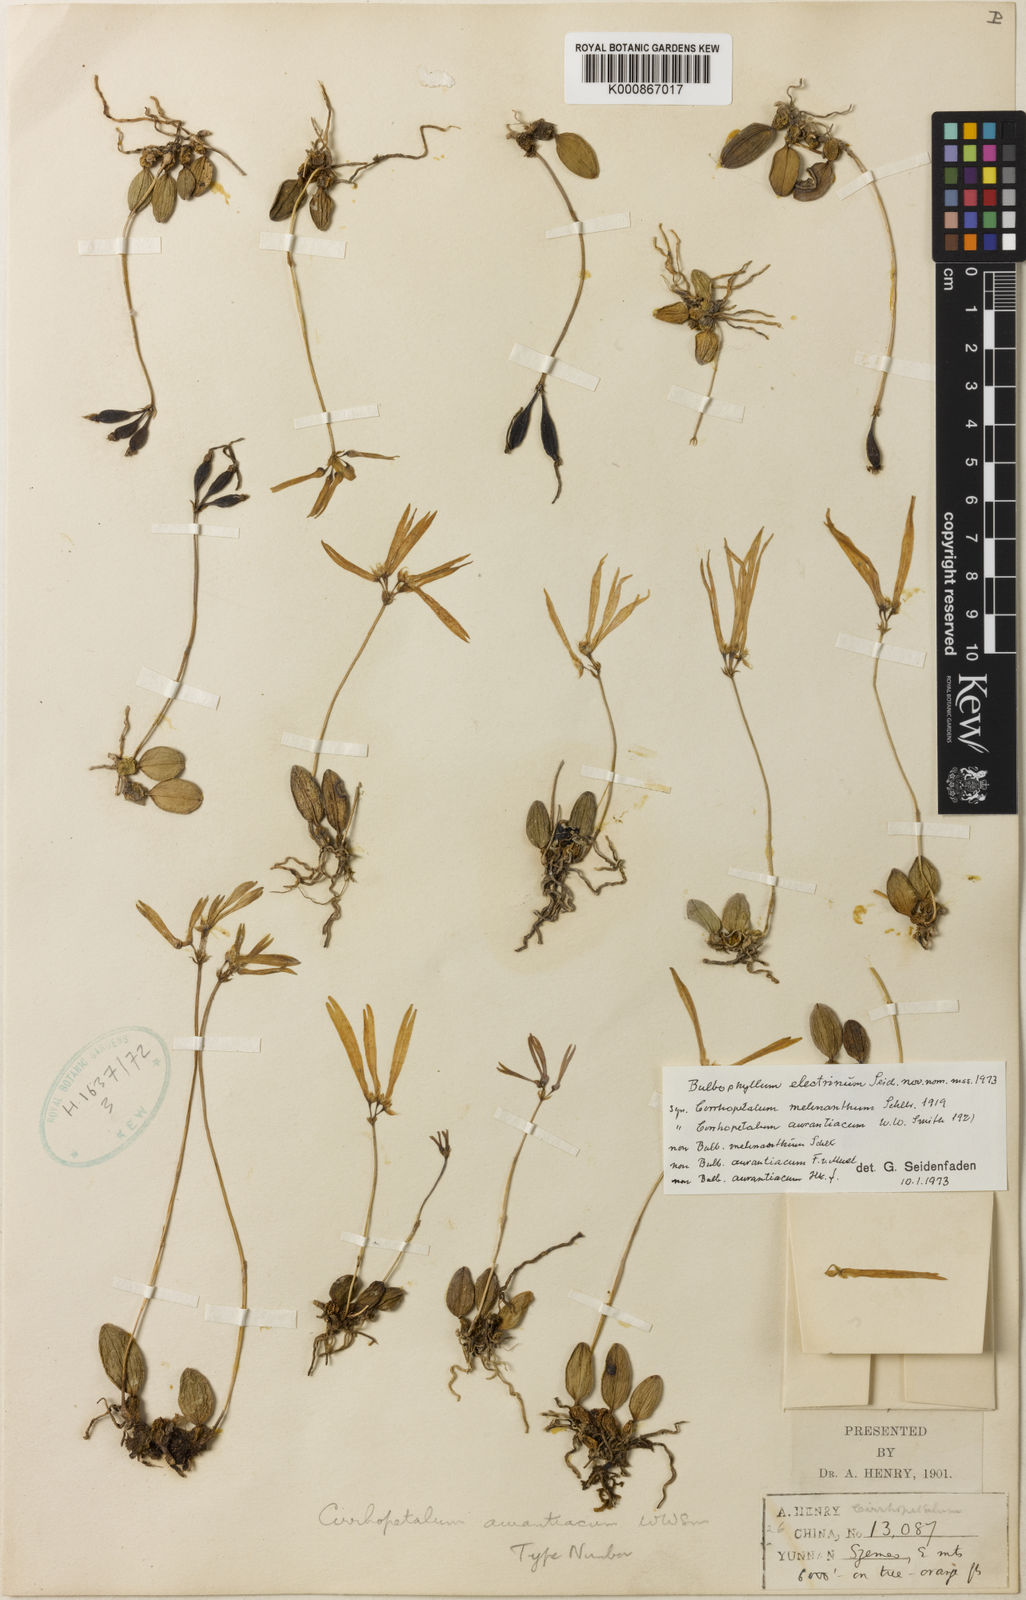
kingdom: Plantae
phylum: Tracheophyta
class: Liliopsida
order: Asparagales
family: Orchidaceae
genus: Bulbophyllum
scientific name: Bulbophyllum hirundinis
